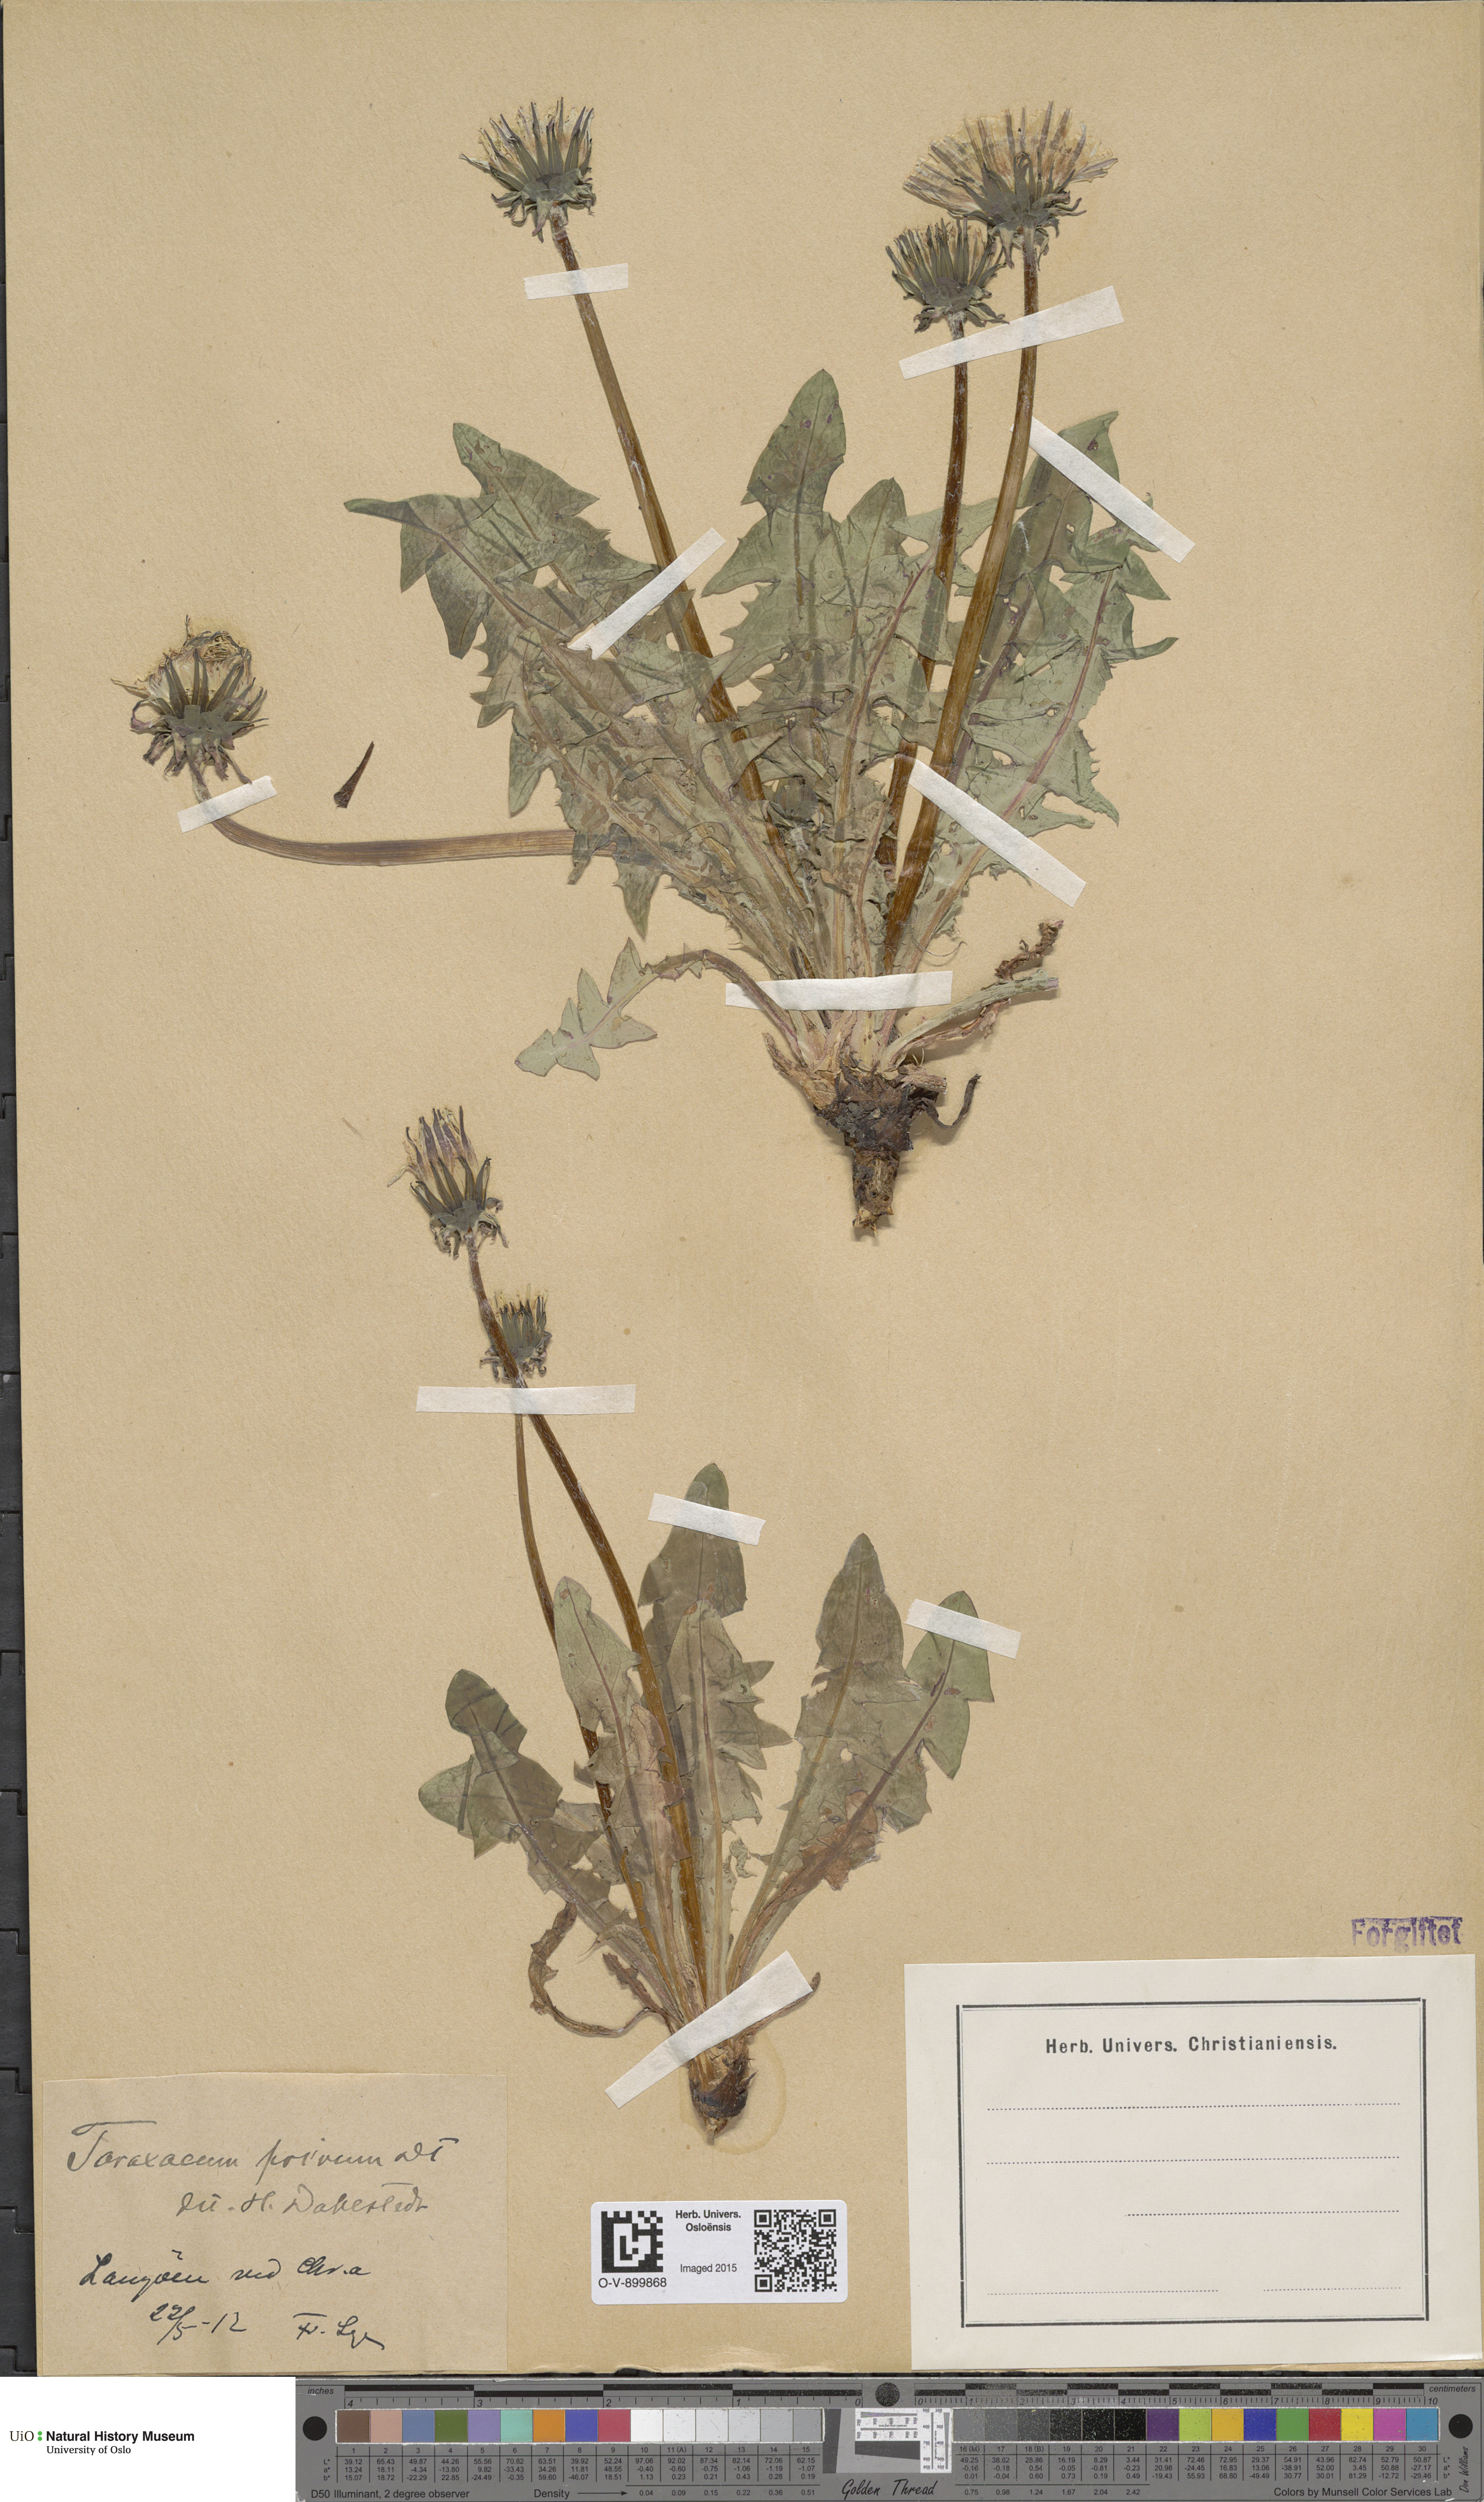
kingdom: Plantae
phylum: Tracheophyta
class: Magnoliopsida
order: Asterales
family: Asteraceae
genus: Taraxacum
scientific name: Taraxacum privum
